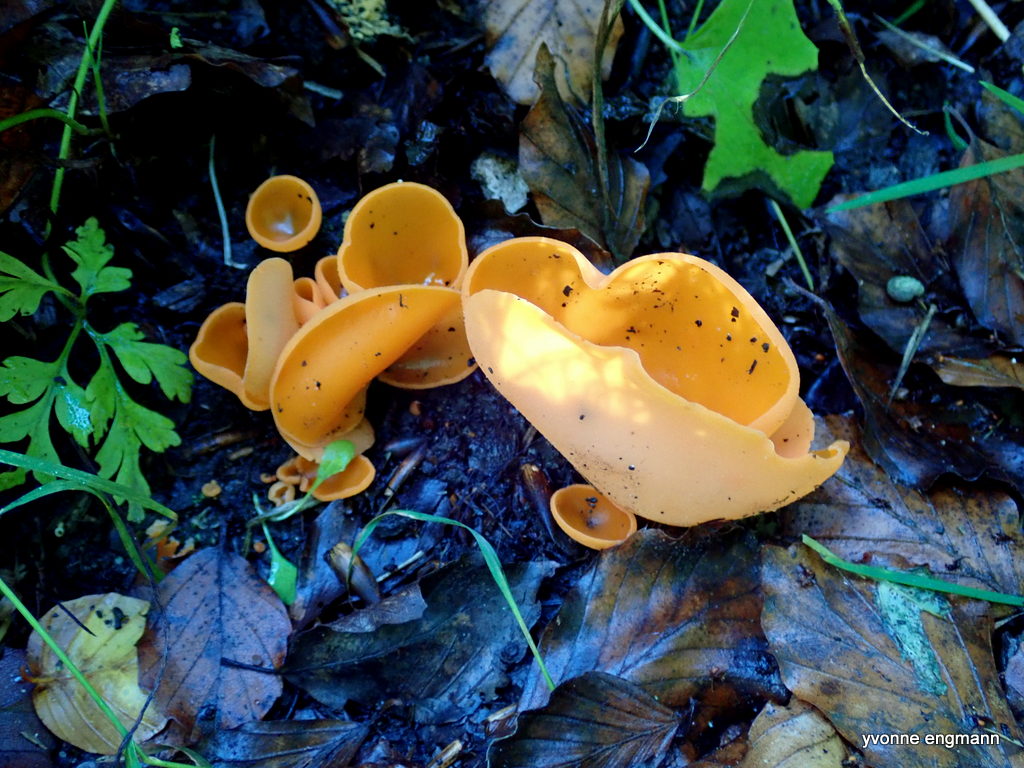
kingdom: Fungi
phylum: Ascomycota
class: Pezizomycetes
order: Pezizales
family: Pyronemataceae
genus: Aleuria
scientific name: Aleuria aurantia
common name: almindelig orangebæger
